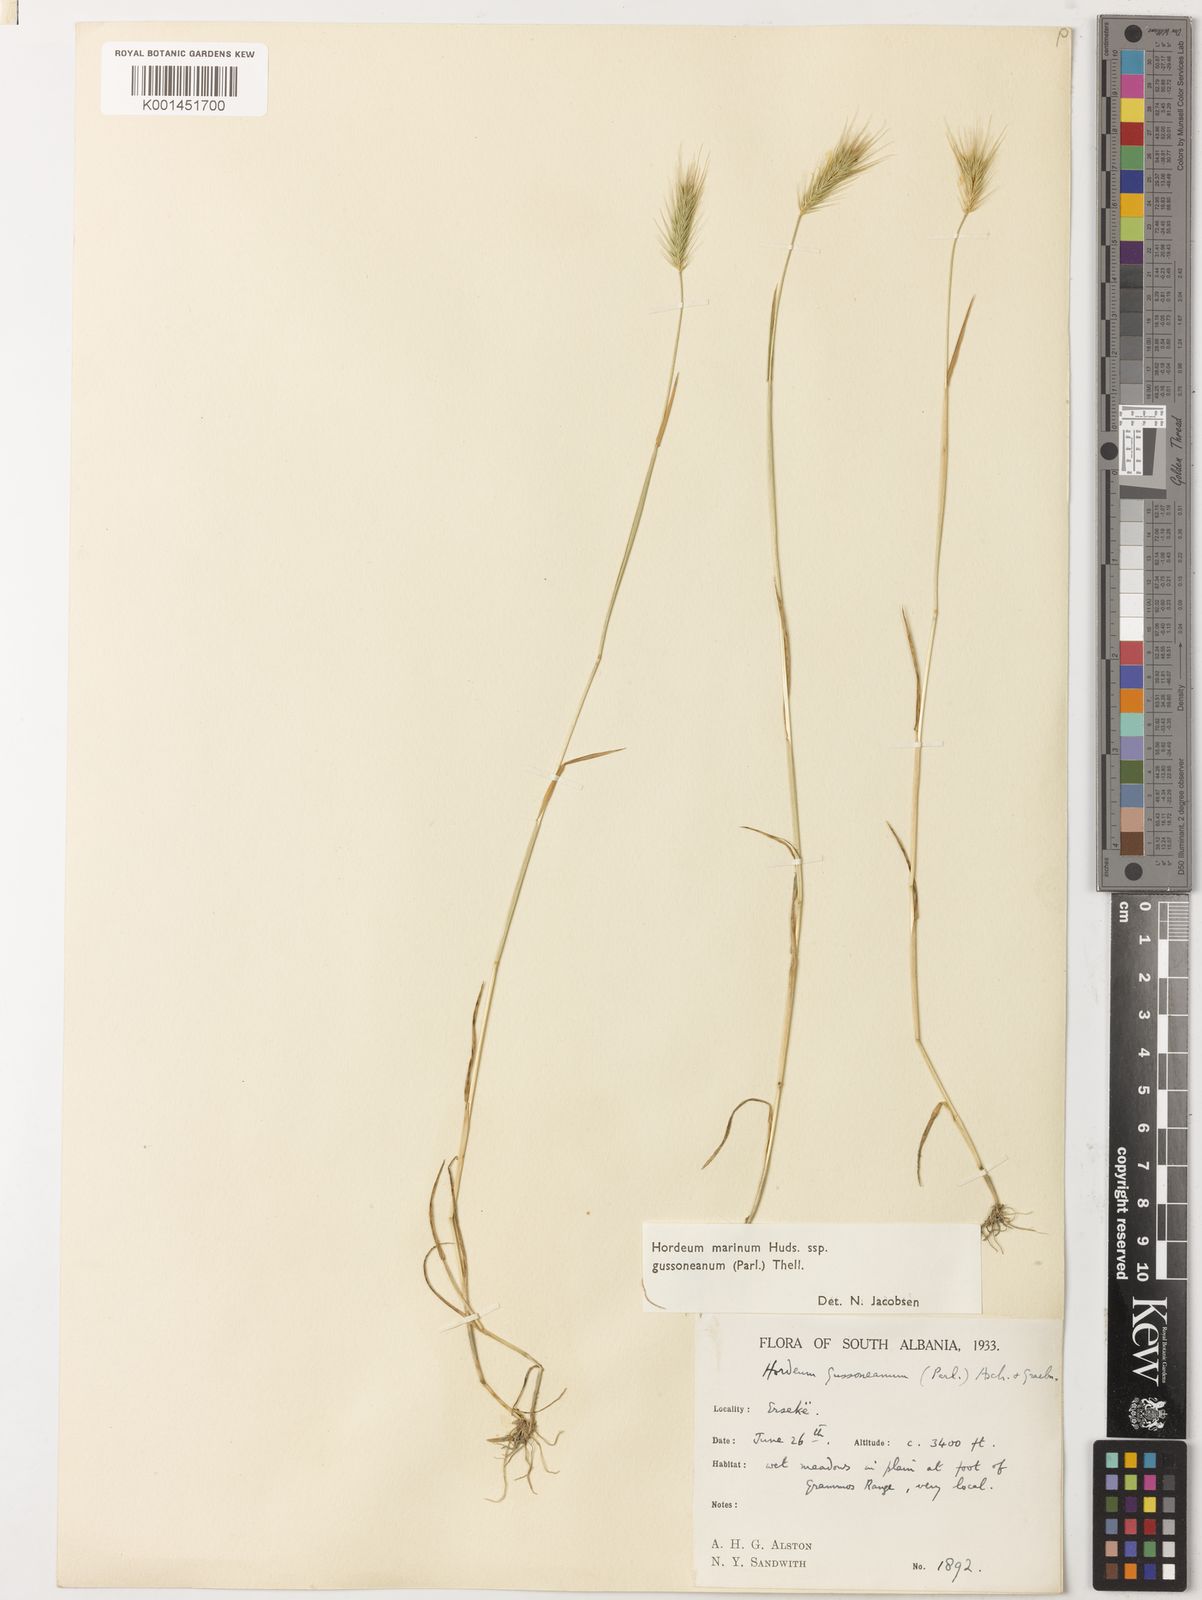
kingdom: Plantae
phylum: Tracheophyta
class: Liliopsida
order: Poales
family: Poaceae
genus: Hordeum
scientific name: Hordeum marinum
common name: Sea barley
